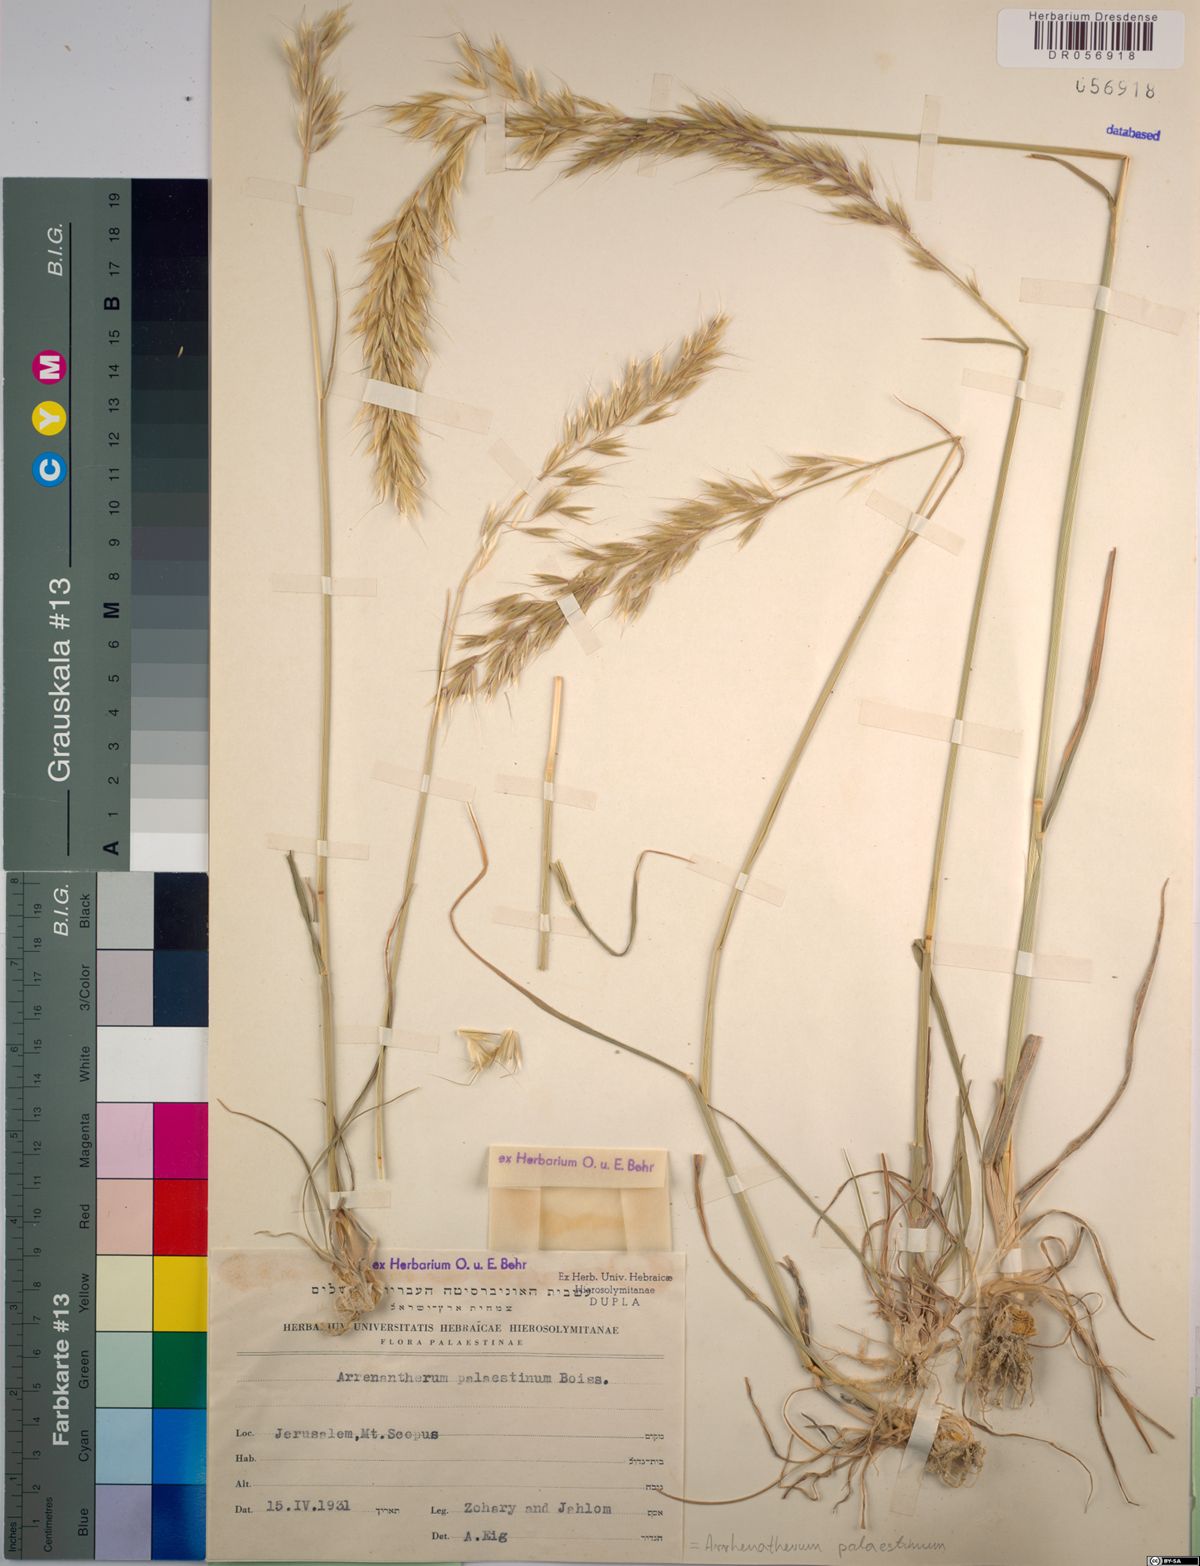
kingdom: Plantae
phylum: Tracheophyta
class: Liliopsida
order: Poales
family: Poaceae
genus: Arrhenatherum
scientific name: Arrhenatherum palaestinum
